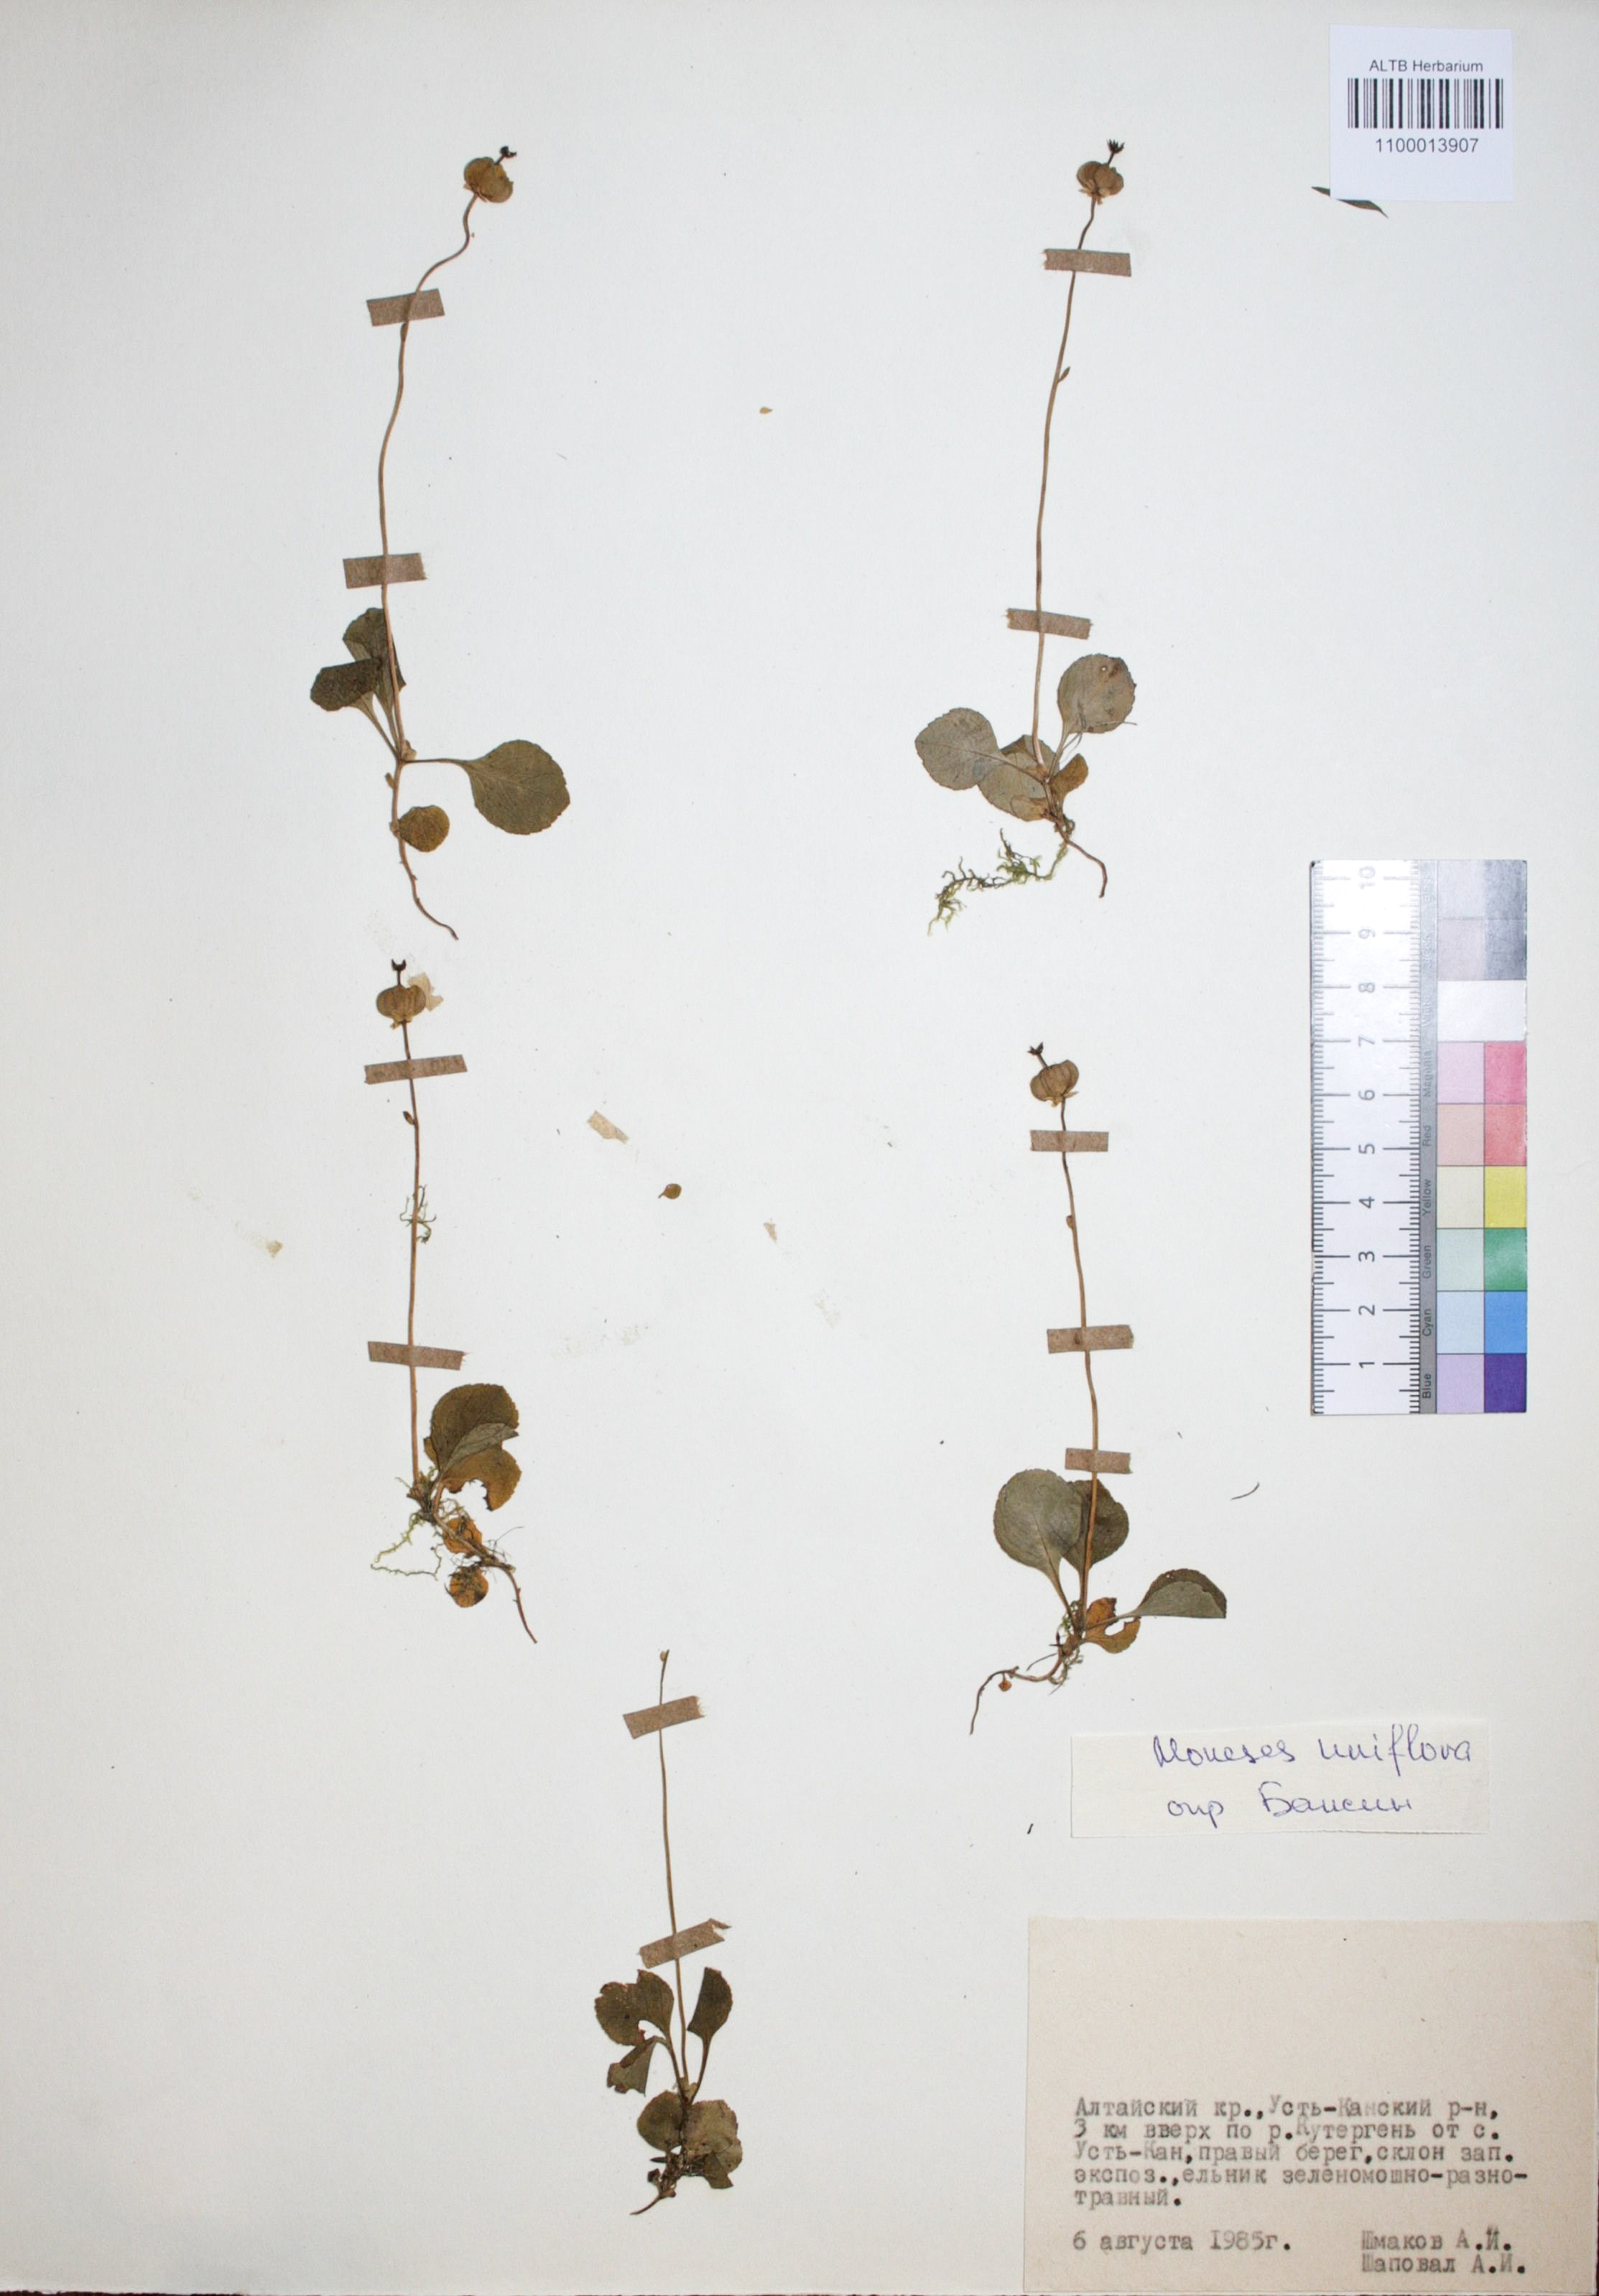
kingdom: Plantae
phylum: Tracheophyta
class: Magnoliopsida
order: Ericales
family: Ericaceae
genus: Moneses
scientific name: Moneses uniflora
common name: One-flowered wintergreen
